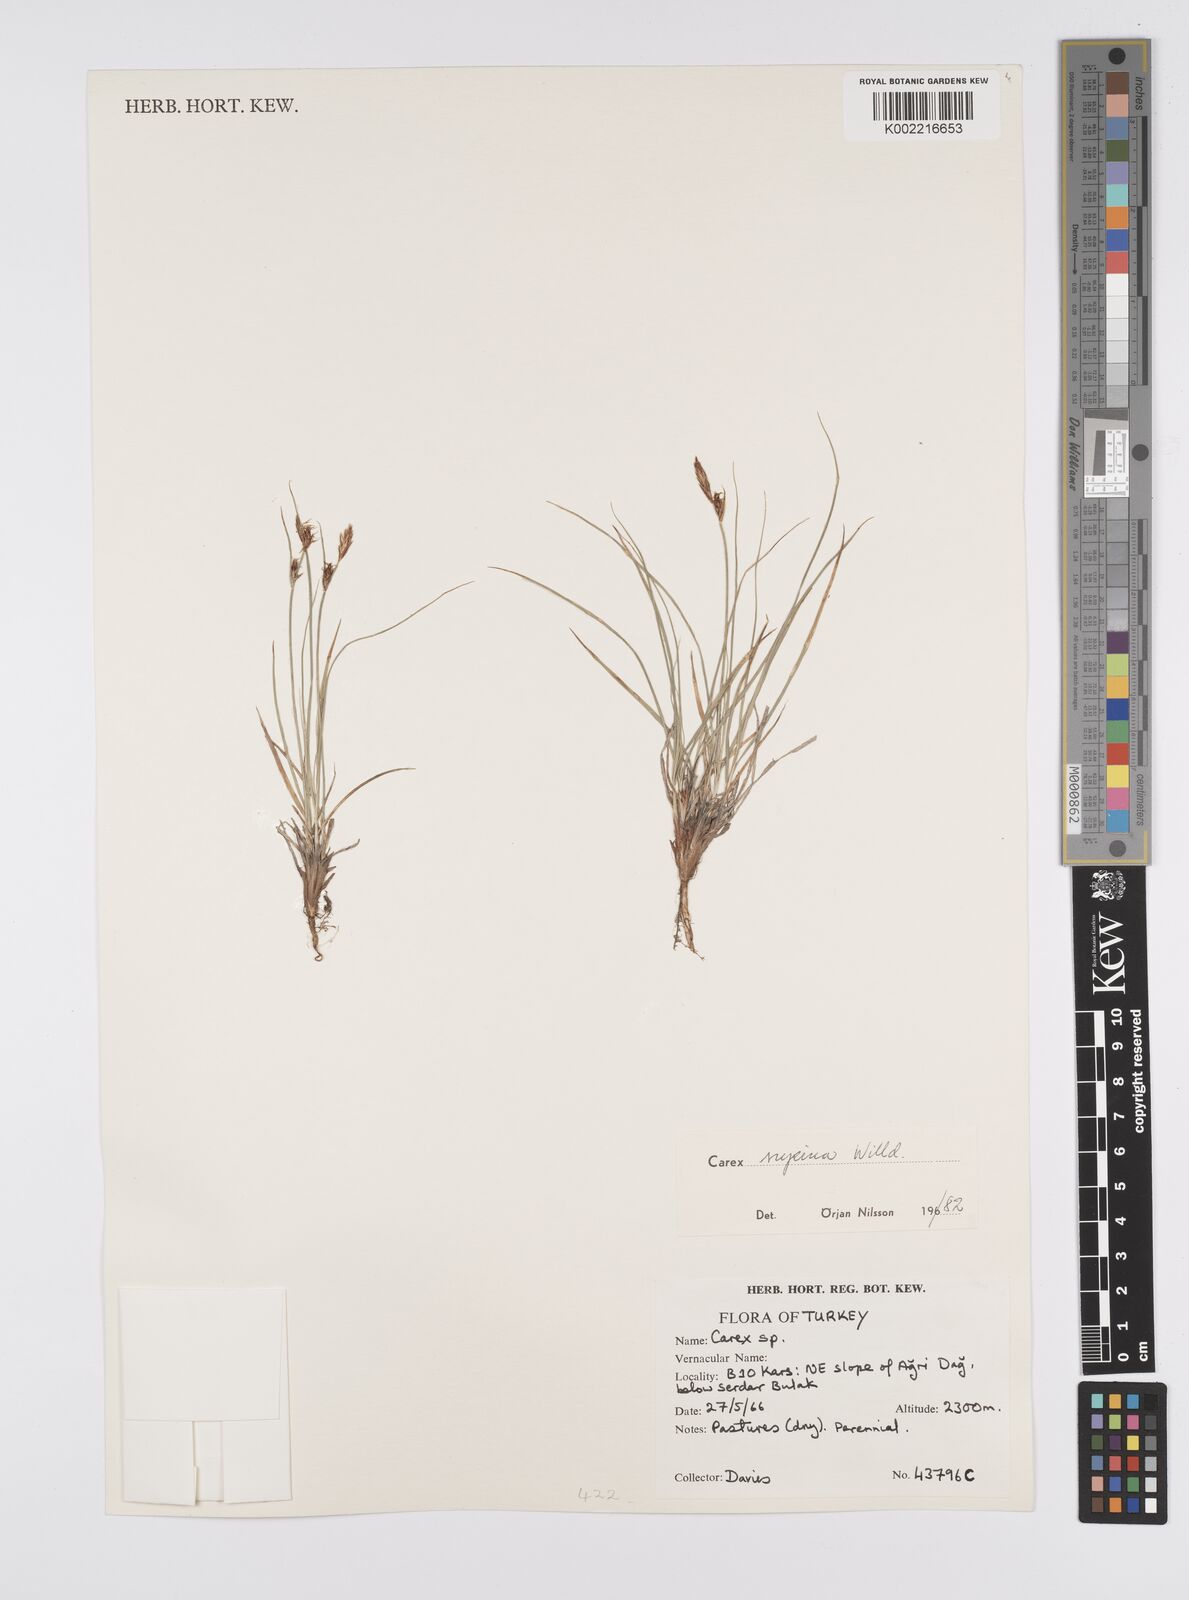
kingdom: Plantae
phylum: Tracheophyta
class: Liliopsida
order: Poales
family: Cyperaceae
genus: Carex
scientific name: Carex supina
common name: Lying-back sedge
